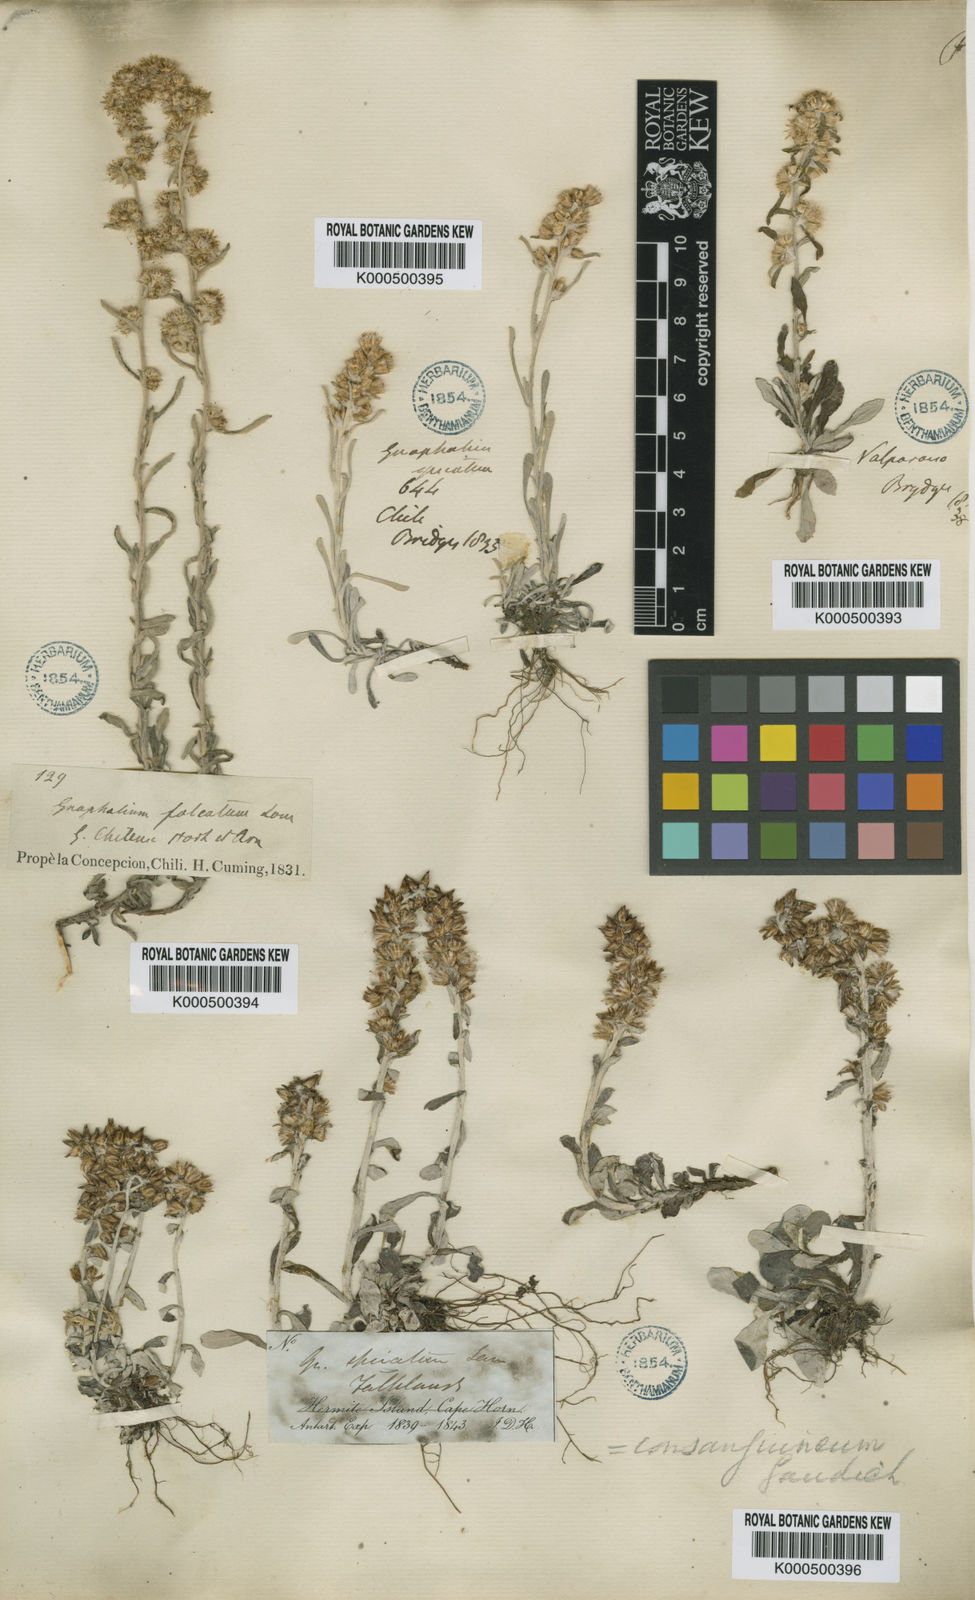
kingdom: Plantae
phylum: Tracheophyta
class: Magnoliopsida
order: Asterales
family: Asteraceae
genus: Gamochaeta
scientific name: Gamochaeta pensylvanica
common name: Pennsylvania everlasting
